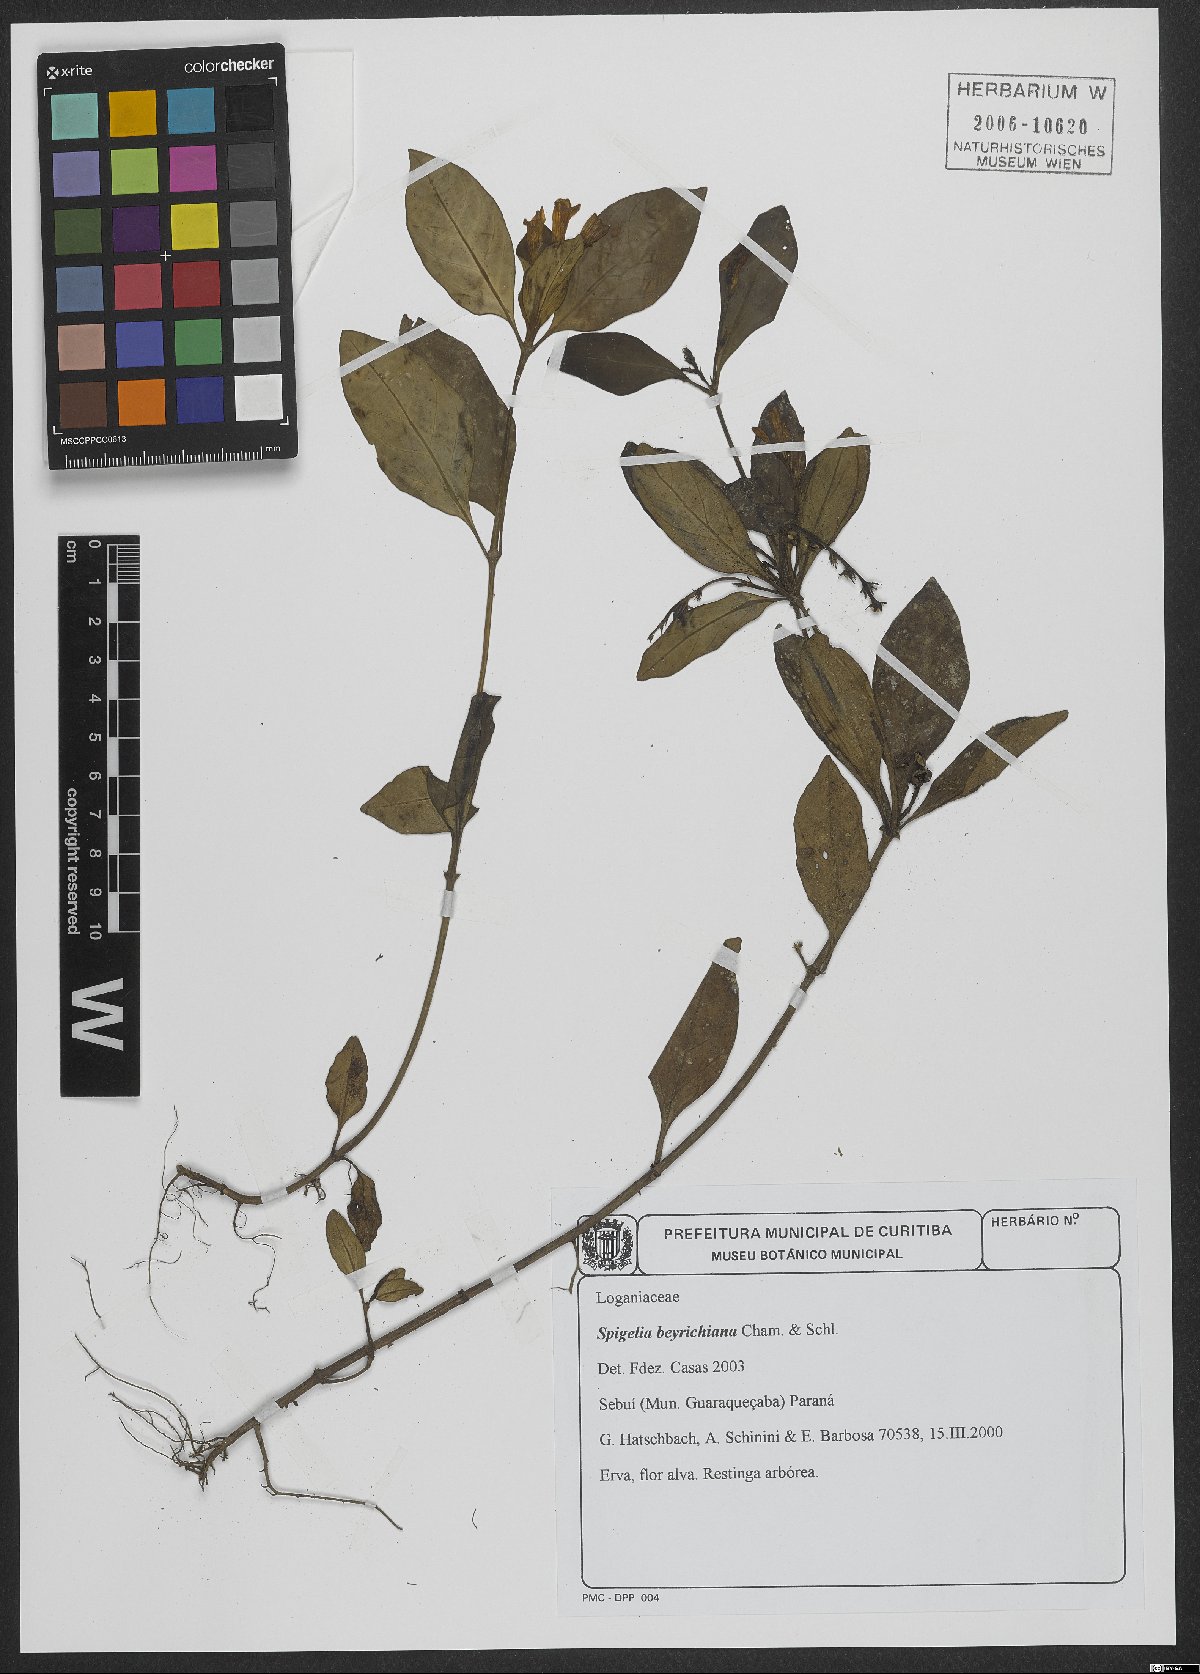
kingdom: Plantae
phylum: Tracheophyta
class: Magnoliopsida
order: Gentianales
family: Loganiaceae
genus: Spigelia
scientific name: Spigelia beyrichiana
